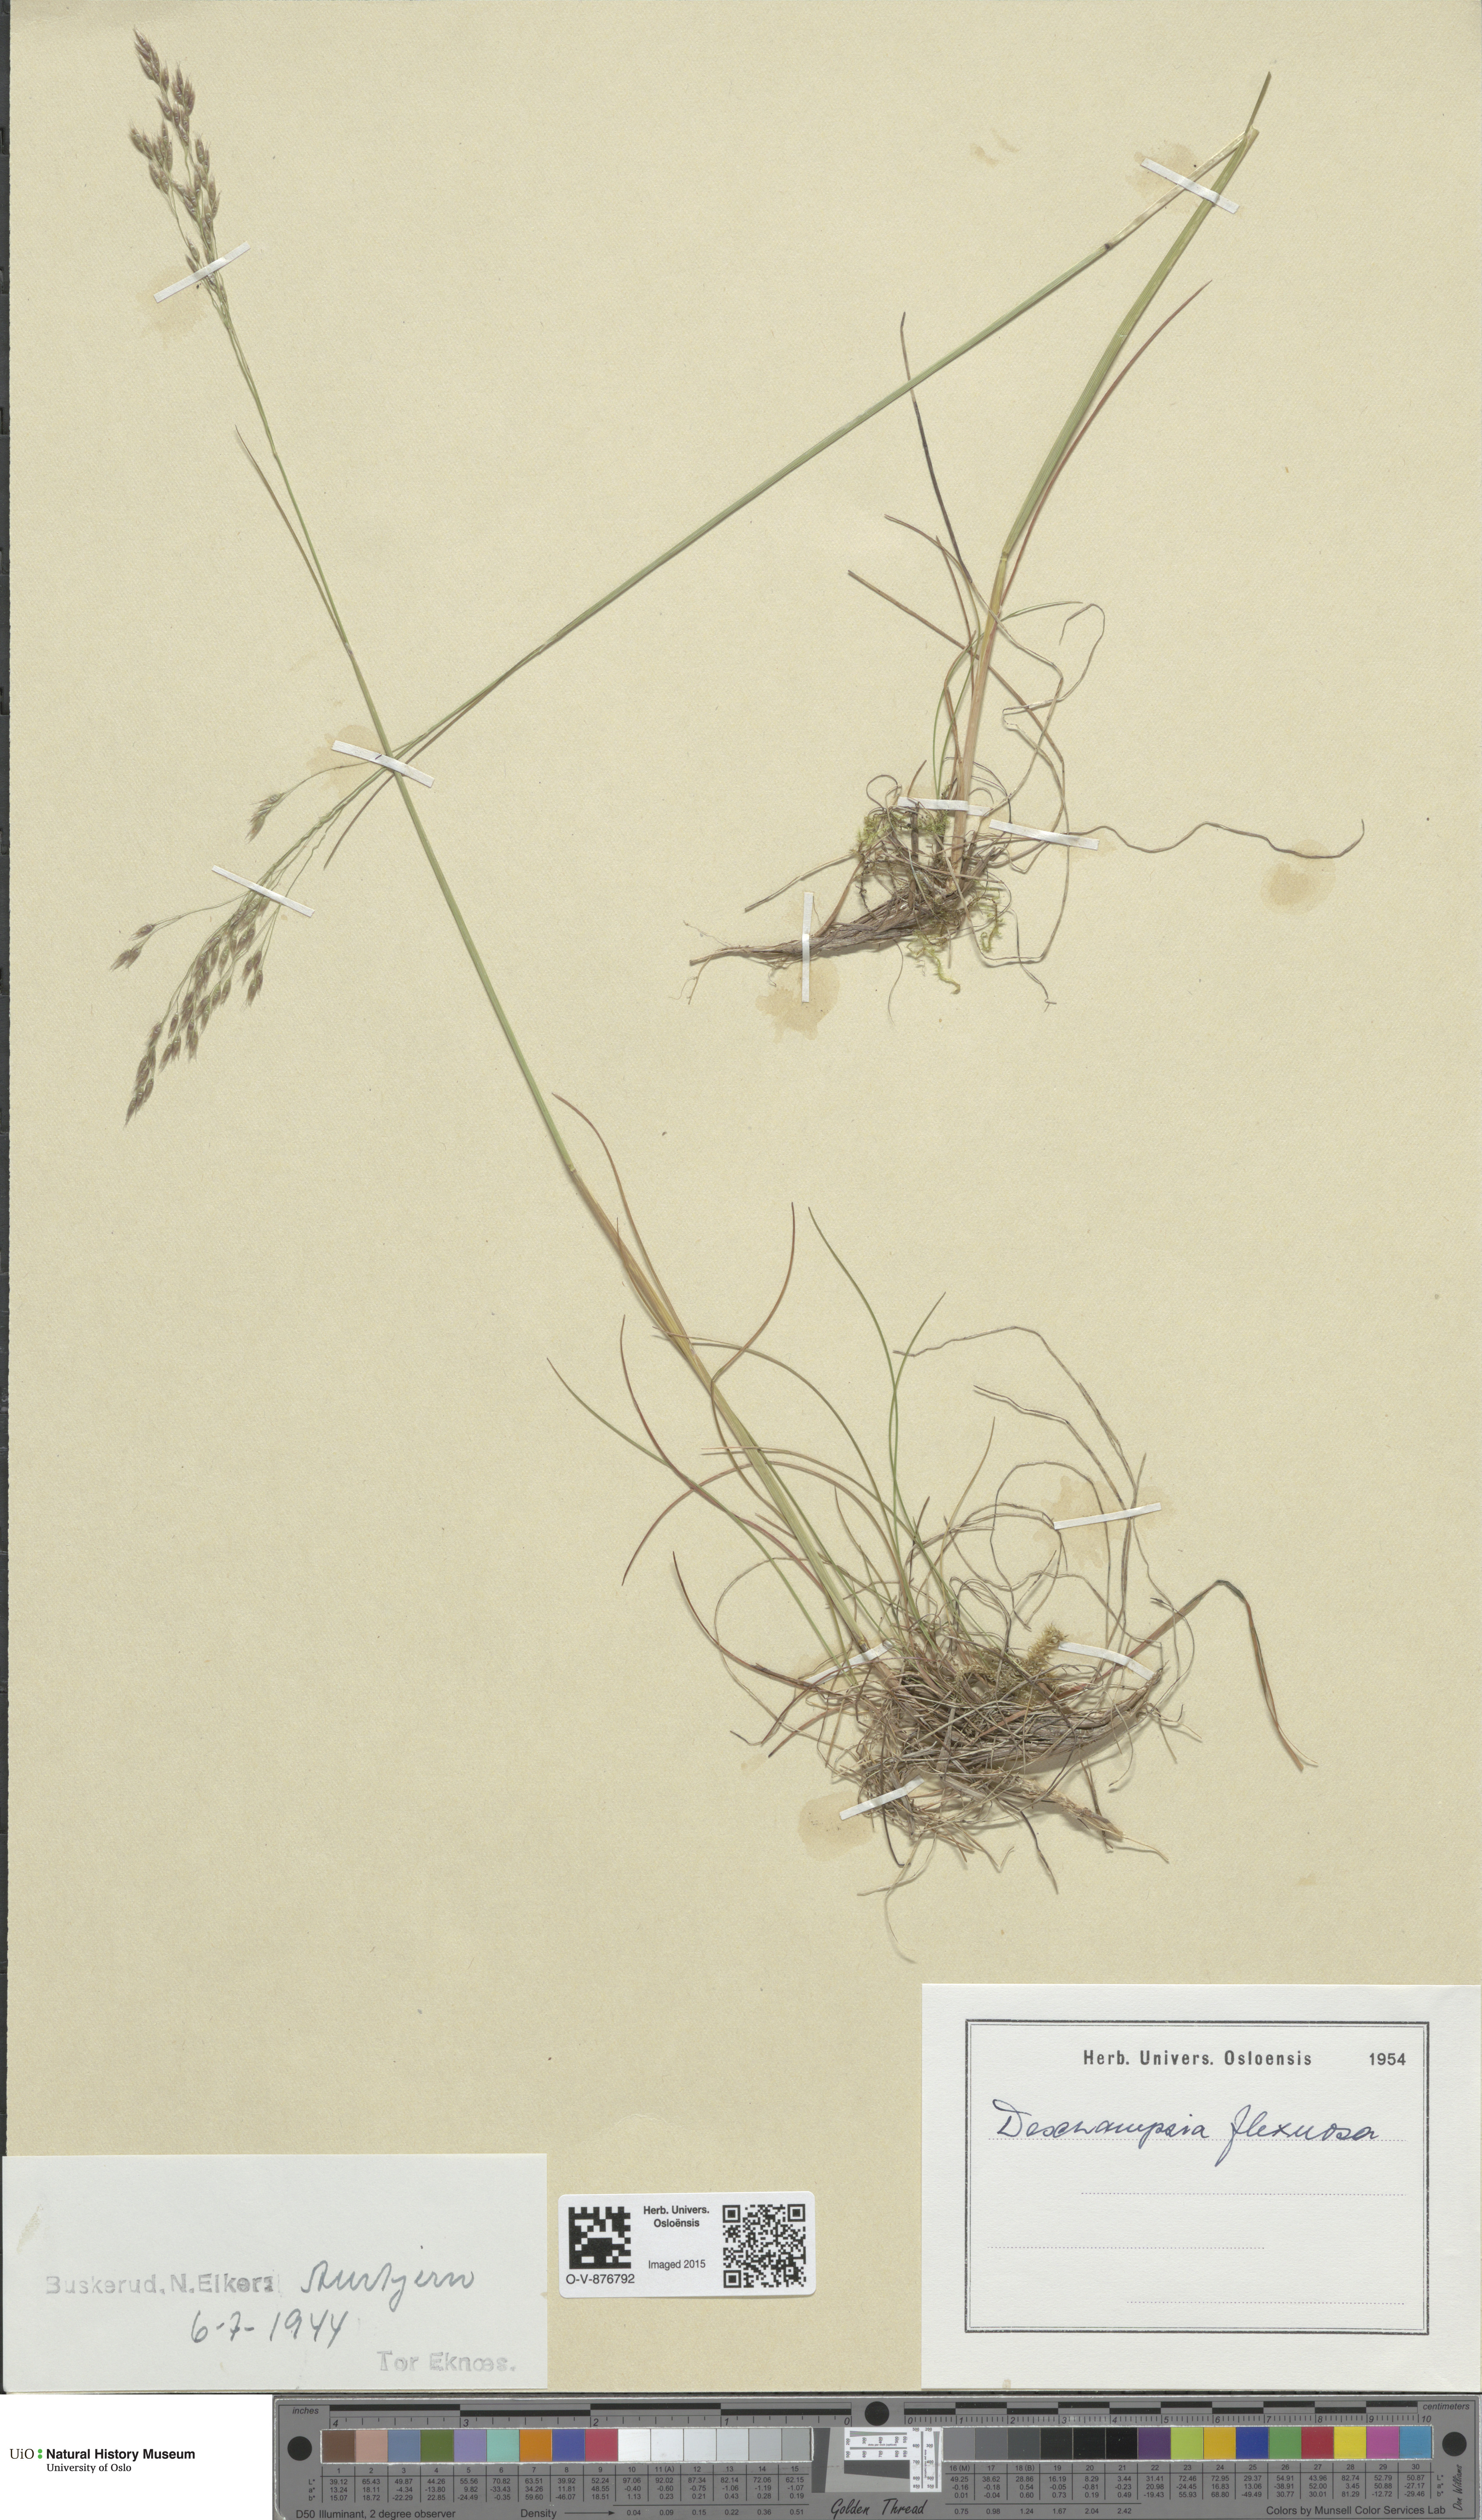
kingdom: Plantae
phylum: Tracheophyta
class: Liliopsida
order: Poales
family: Poaceae
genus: Avenella
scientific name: Avenella flexuosa
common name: Wavy hairgrass
